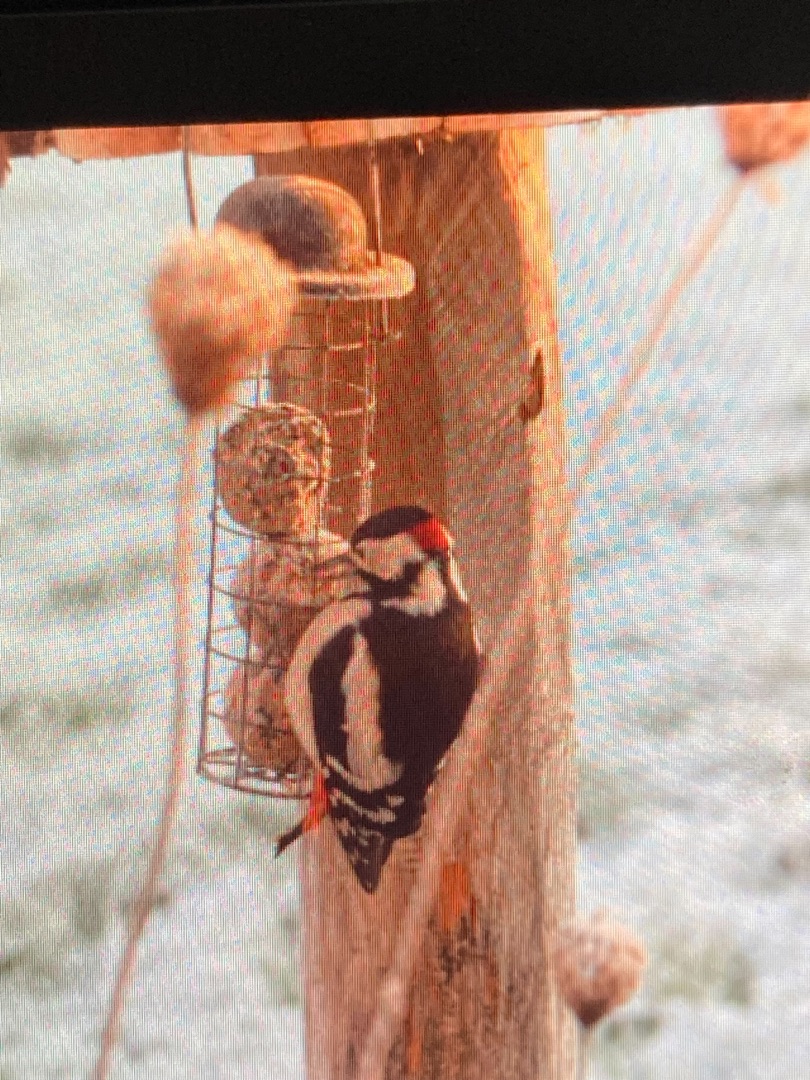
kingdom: Animalia
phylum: Chordata
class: Aves
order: Piciformes
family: Picidae
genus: Dendrocopos
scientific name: Dendrocopos major
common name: Stor flagspætte
